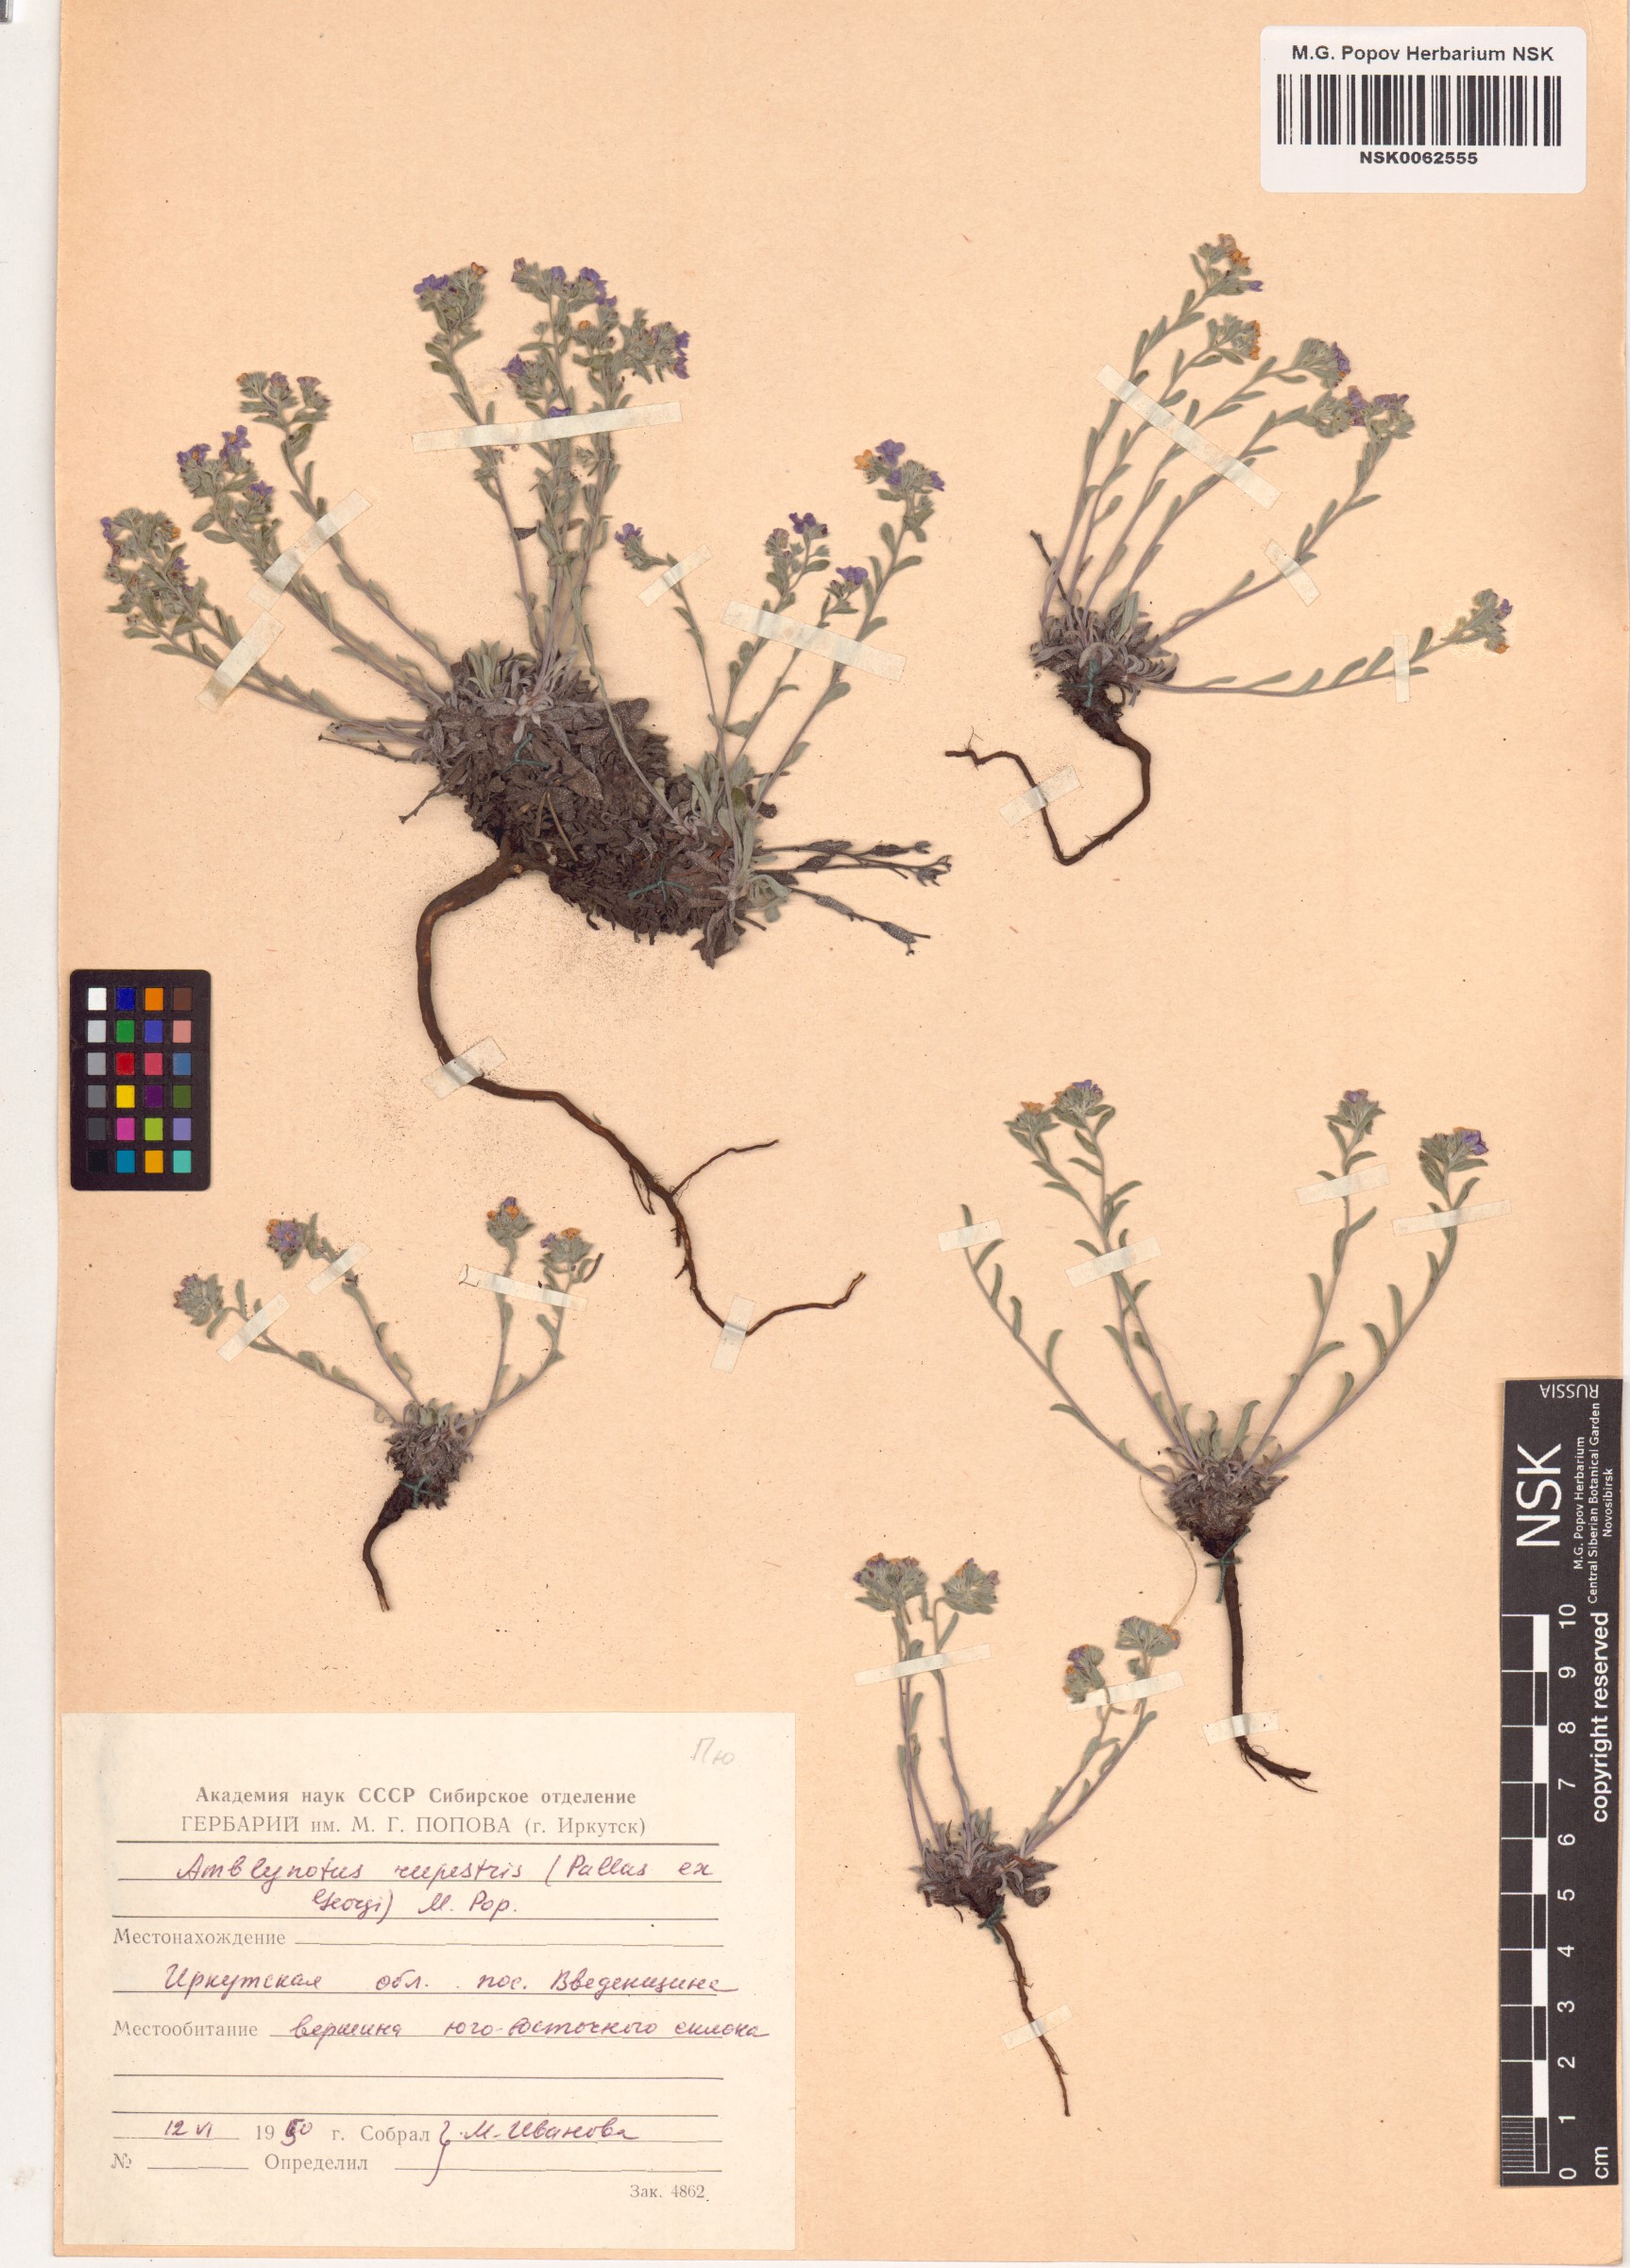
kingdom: Plantae
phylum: Tracheophyta
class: Magnoliopsida
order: Boraginales
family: Boraginaceae
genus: Eritrichium
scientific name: Eritrichium rupestre
